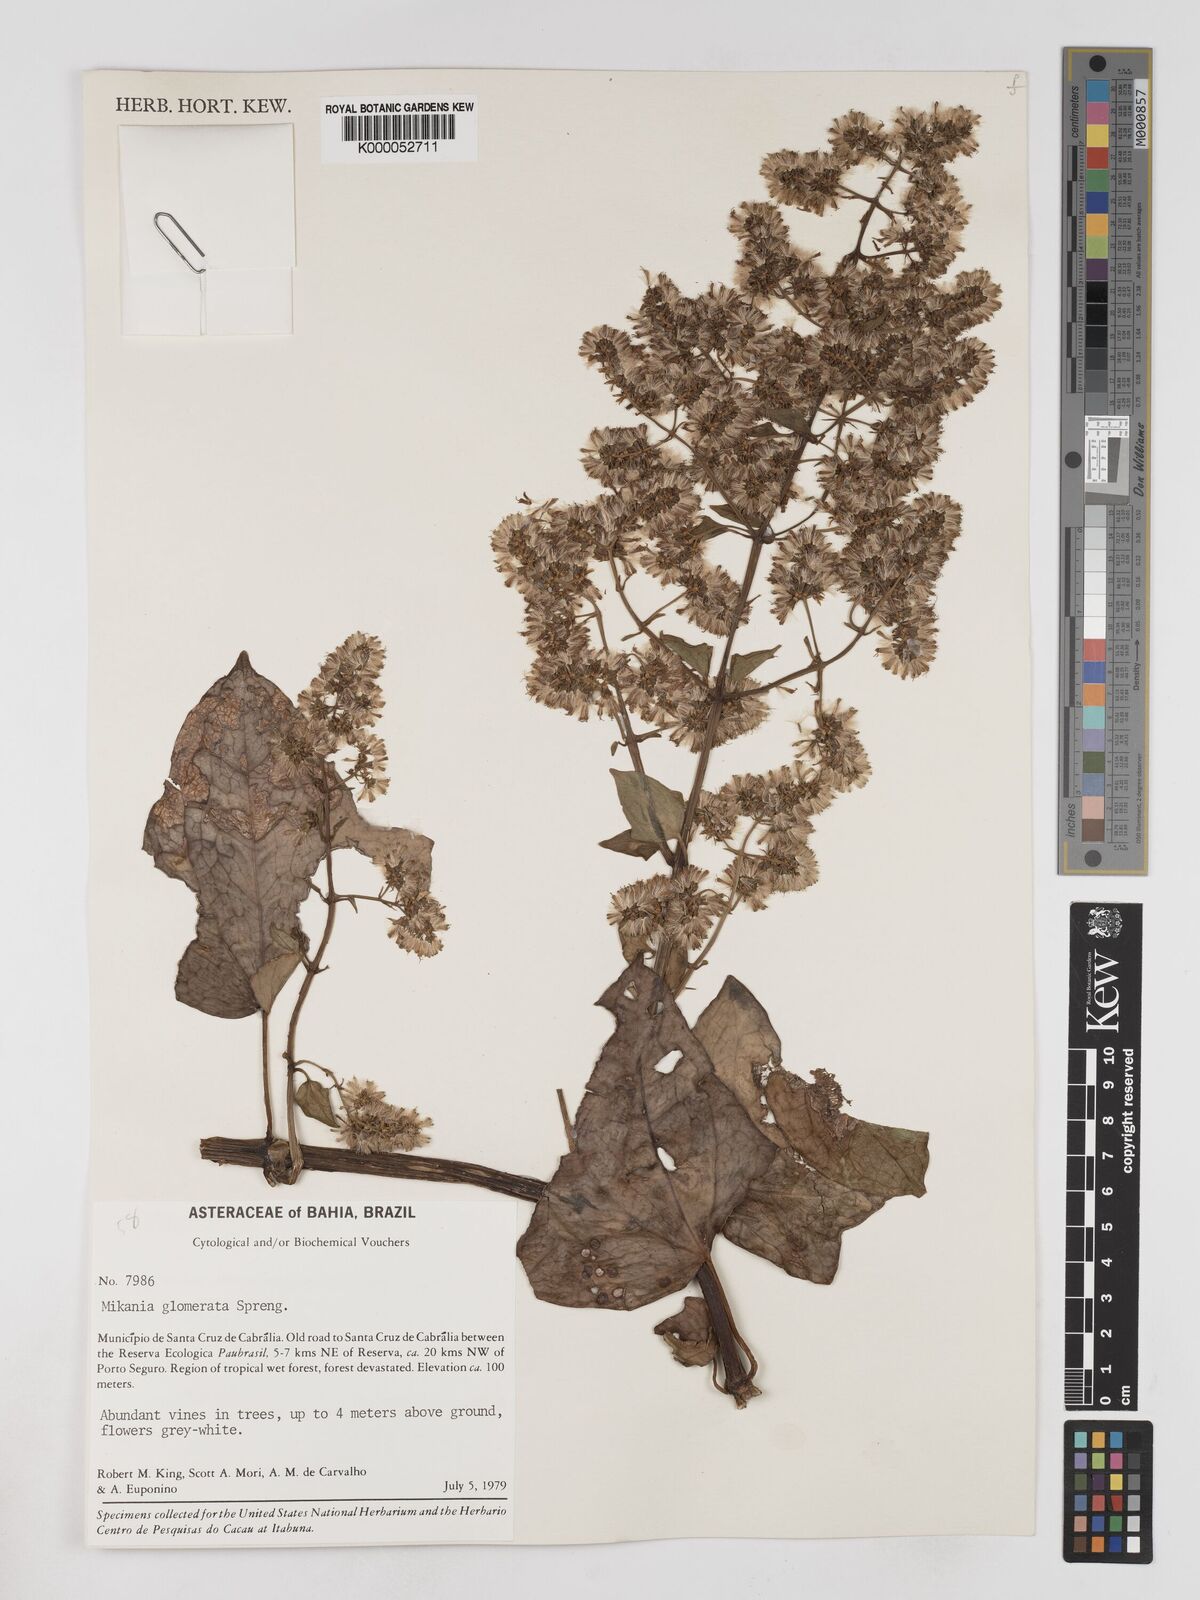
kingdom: Plantae
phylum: Tracheophyta
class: Magnoliopsida
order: Asterales
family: Asteraceae
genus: Mikania
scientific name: Mikania glomerata
